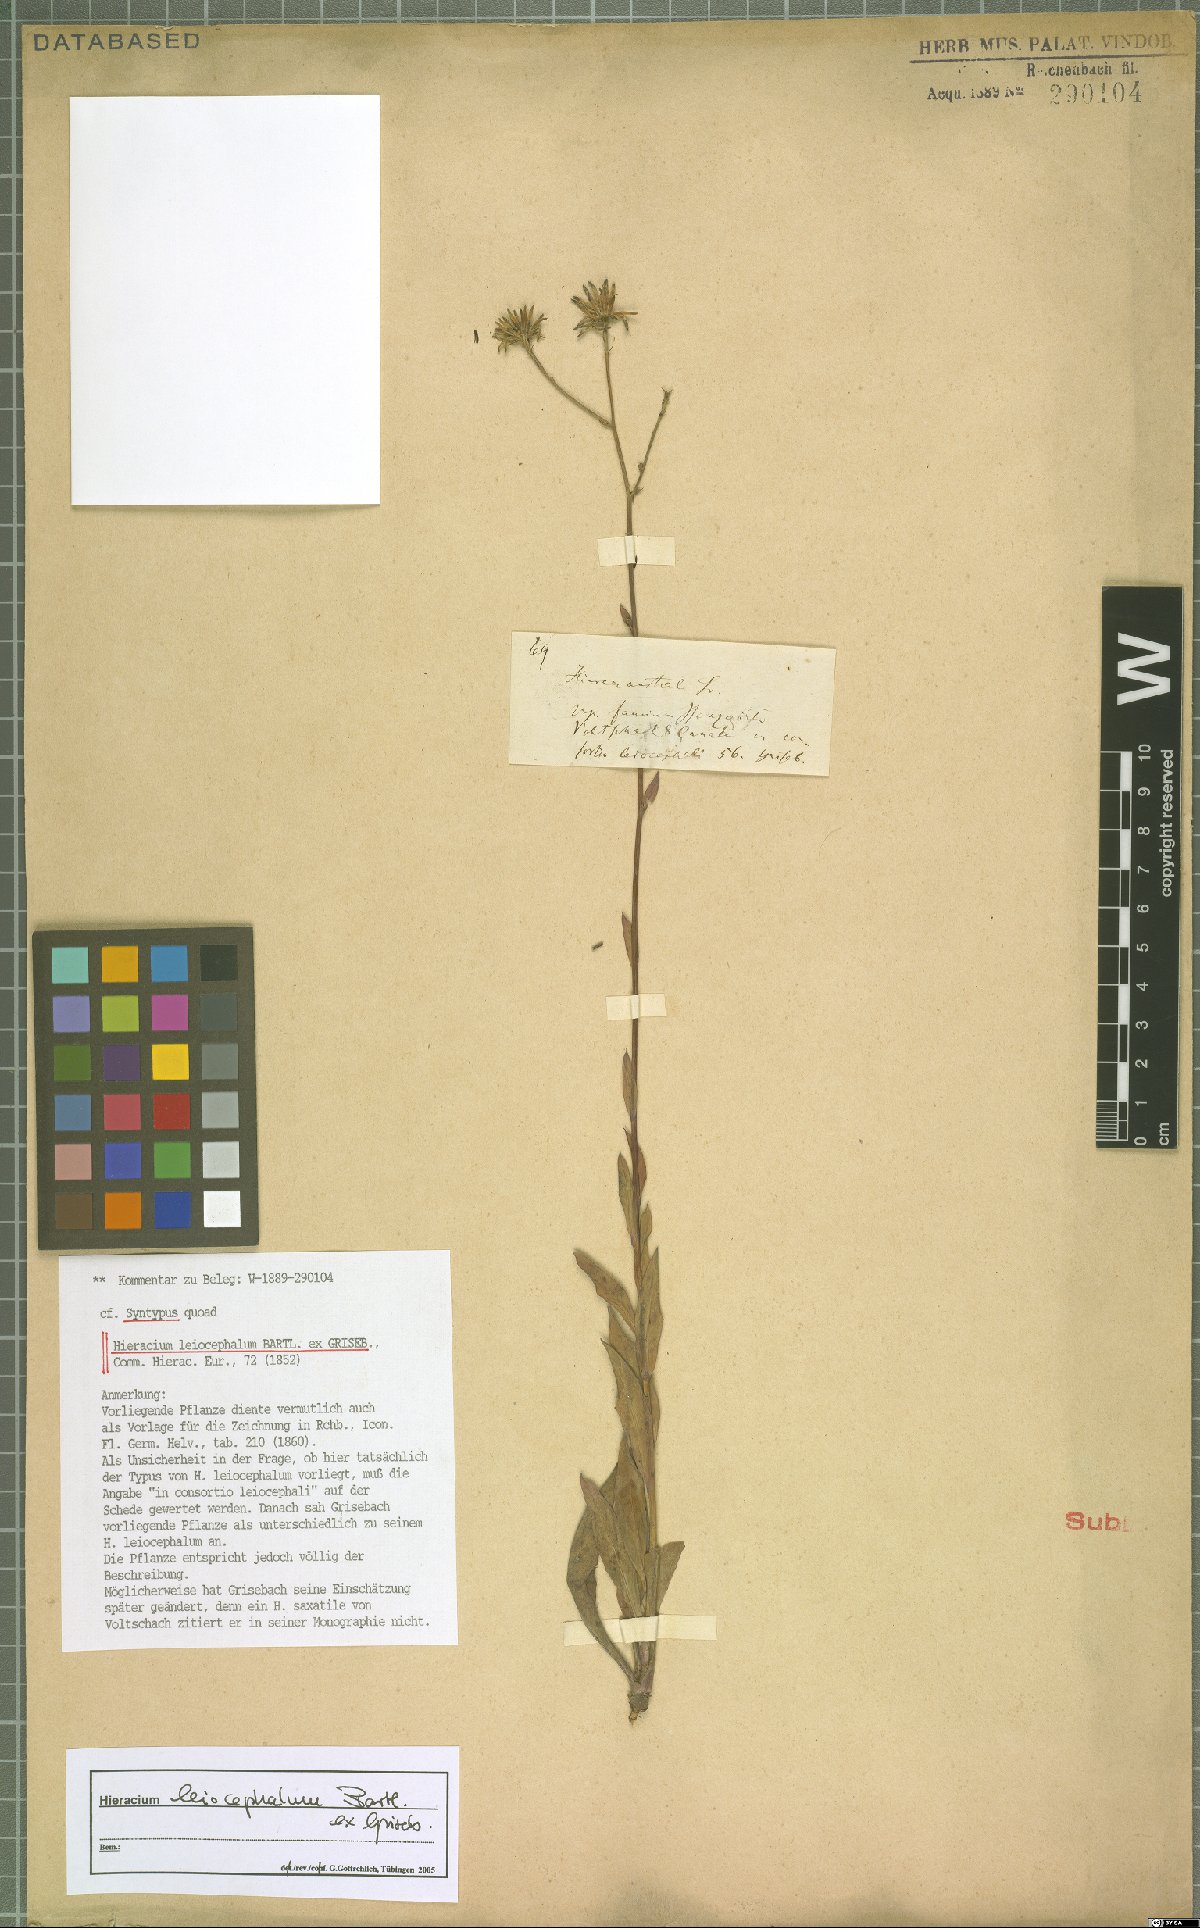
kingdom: Plantae
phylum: Tracheophyta
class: Magnoliopsida
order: Asterales
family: Asteraceae
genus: Hieracium
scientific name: Hieracium leiocephalum
